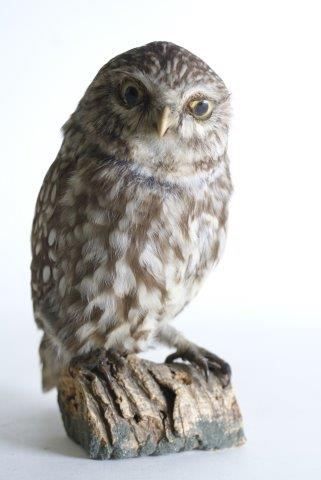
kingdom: Animalia
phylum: Chordata
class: Aves
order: Strigiformes
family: Strigidae
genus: Athene
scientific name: Athene noctua
